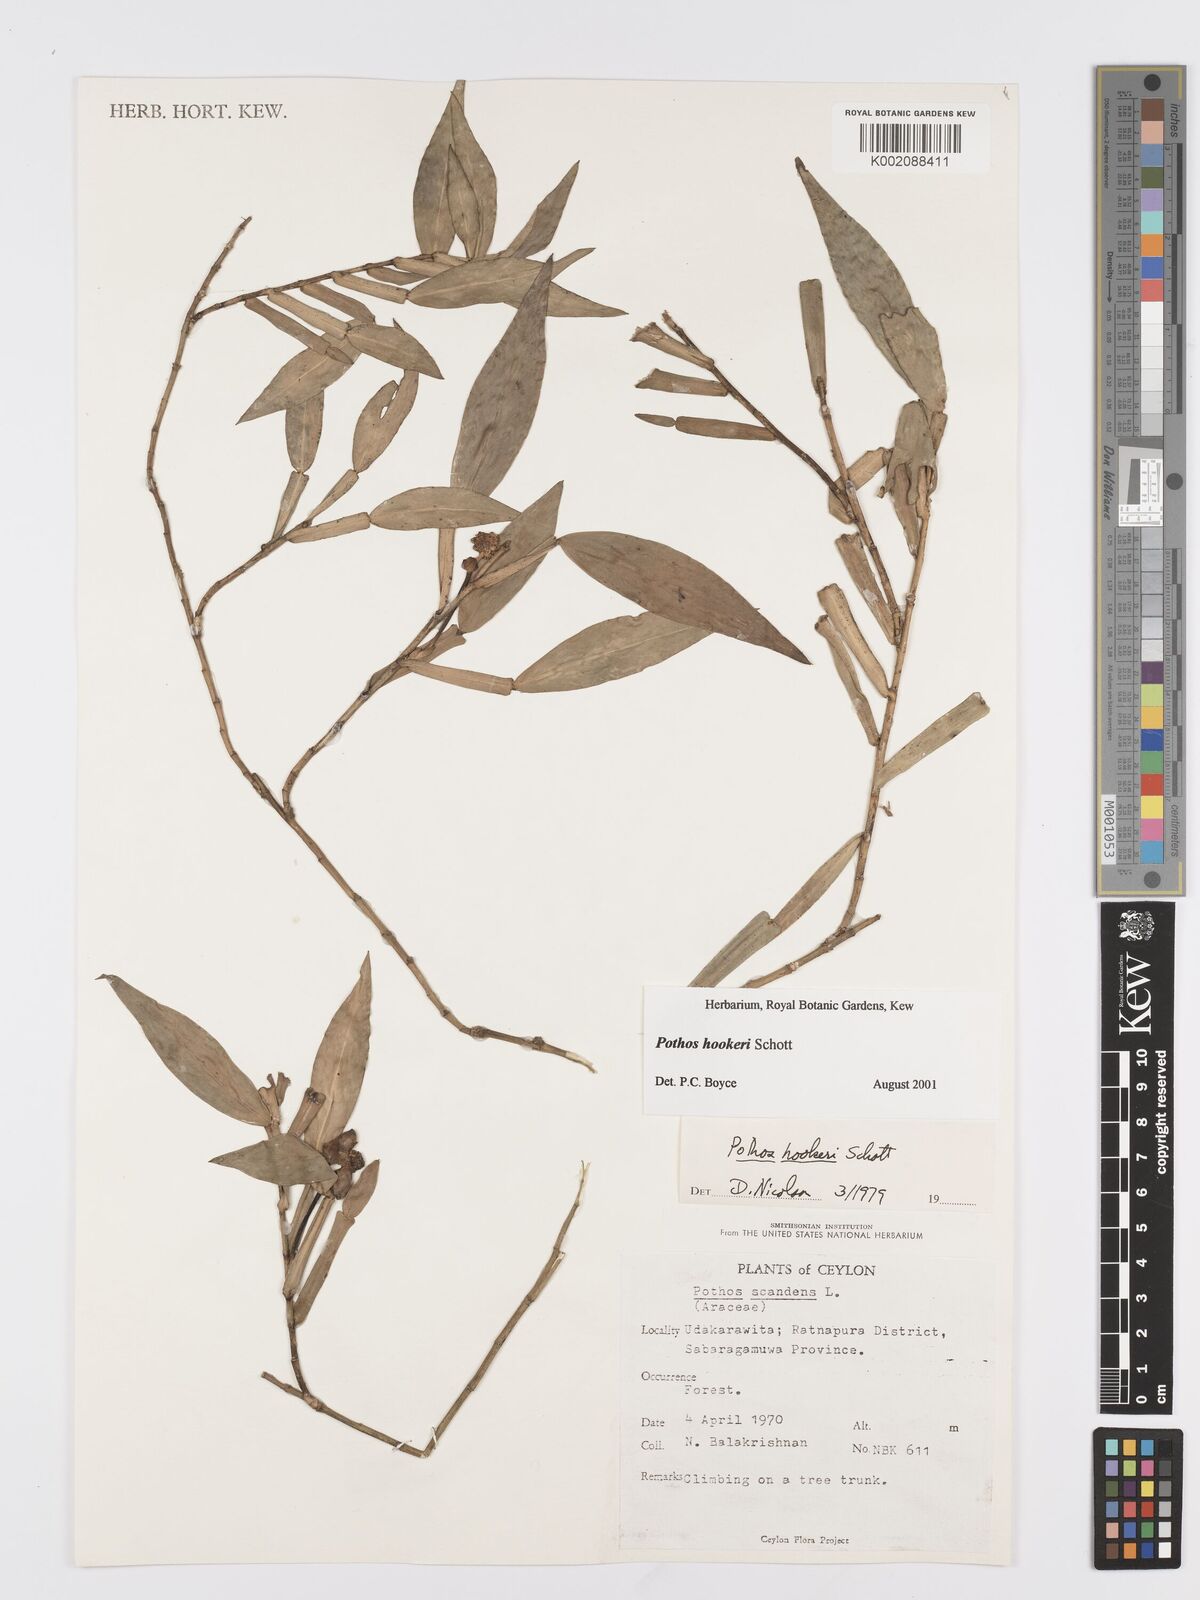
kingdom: Plantae
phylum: Tracheophyta
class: Liliopsida
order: Alismatales
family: Araceae
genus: Pothos
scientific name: Pothos hookeri
